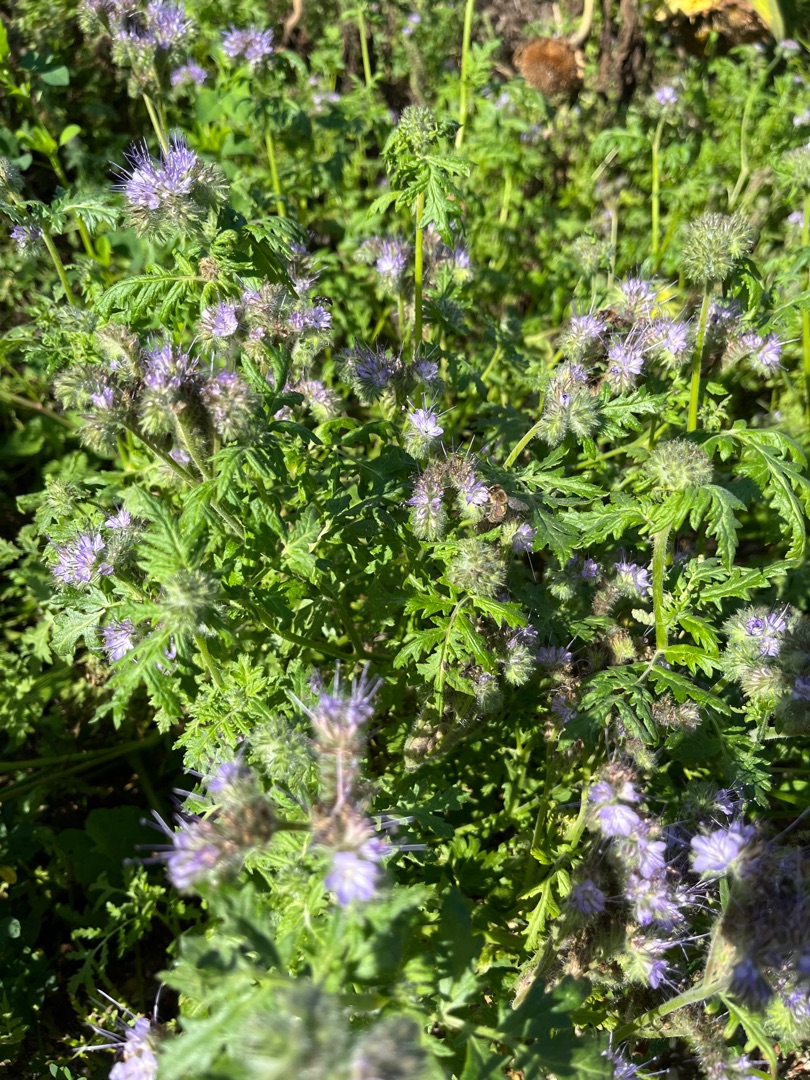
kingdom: Plantae
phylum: Tracheophyta
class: Magnoliopsida
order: Boraginales
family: Hydrophyllaceae
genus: Phacelia
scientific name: Phacelia tanacetifolia
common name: Honningurt
